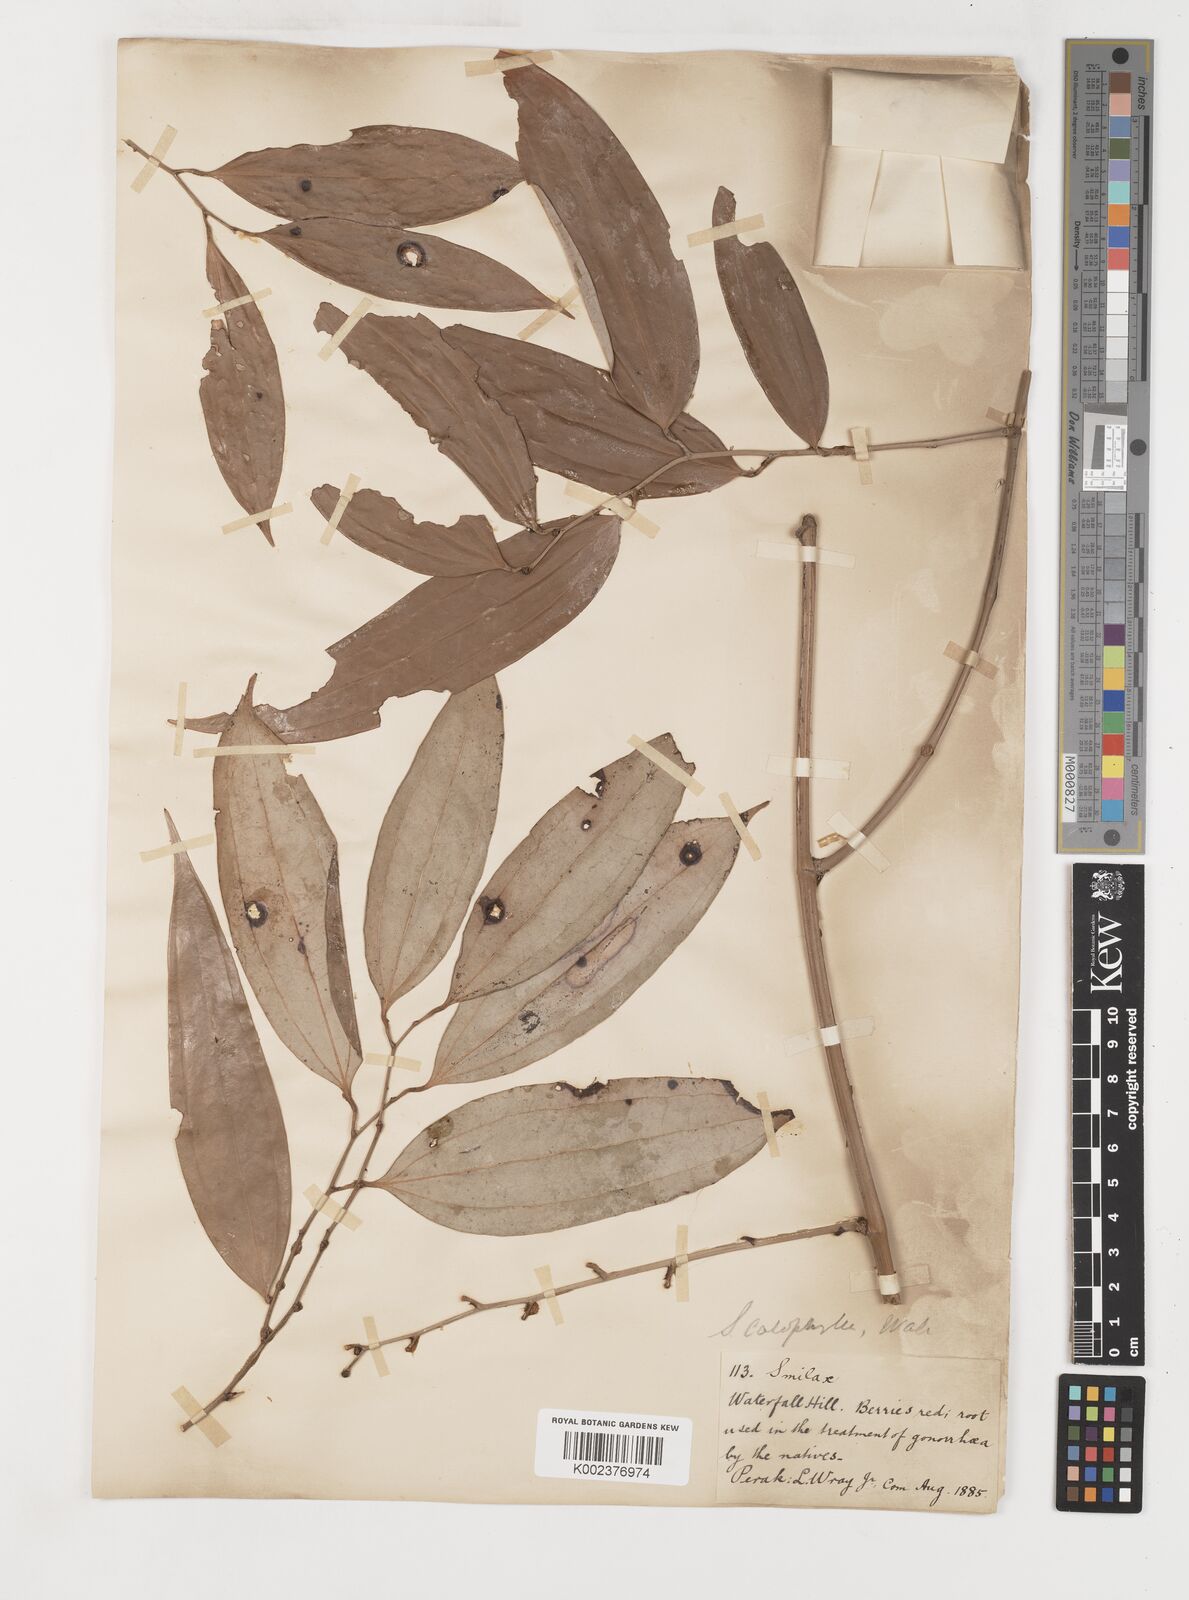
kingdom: Plantae
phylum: Tracheophyta
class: Liliopsida
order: Liliales
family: Smilacaceae
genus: Smilax
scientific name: Smilax calophylla
